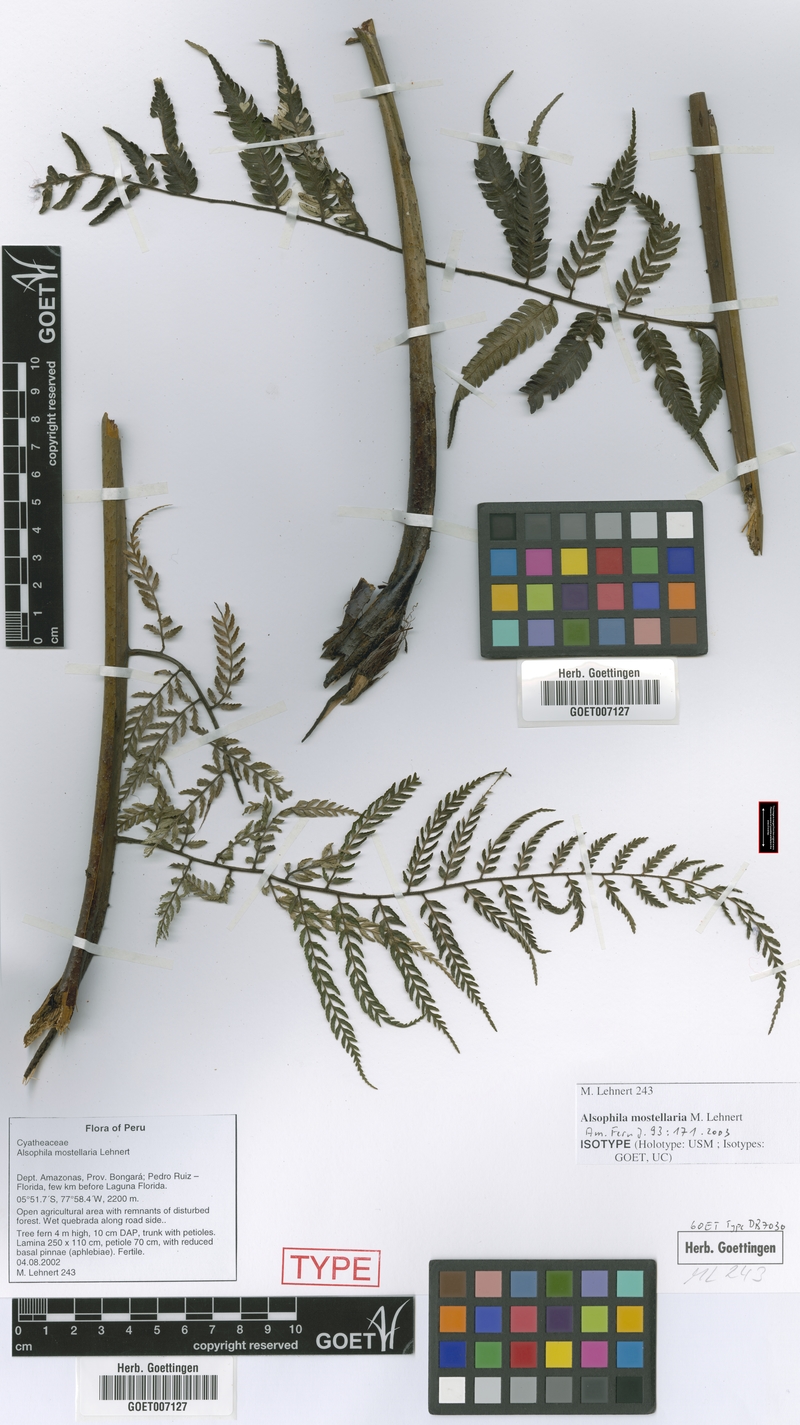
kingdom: Plantae
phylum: Tracheophyta
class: Polypodiopsida
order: Cyatheales
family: Cyatheaceae
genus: Alsophila
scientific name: Alsophila mostellaria
